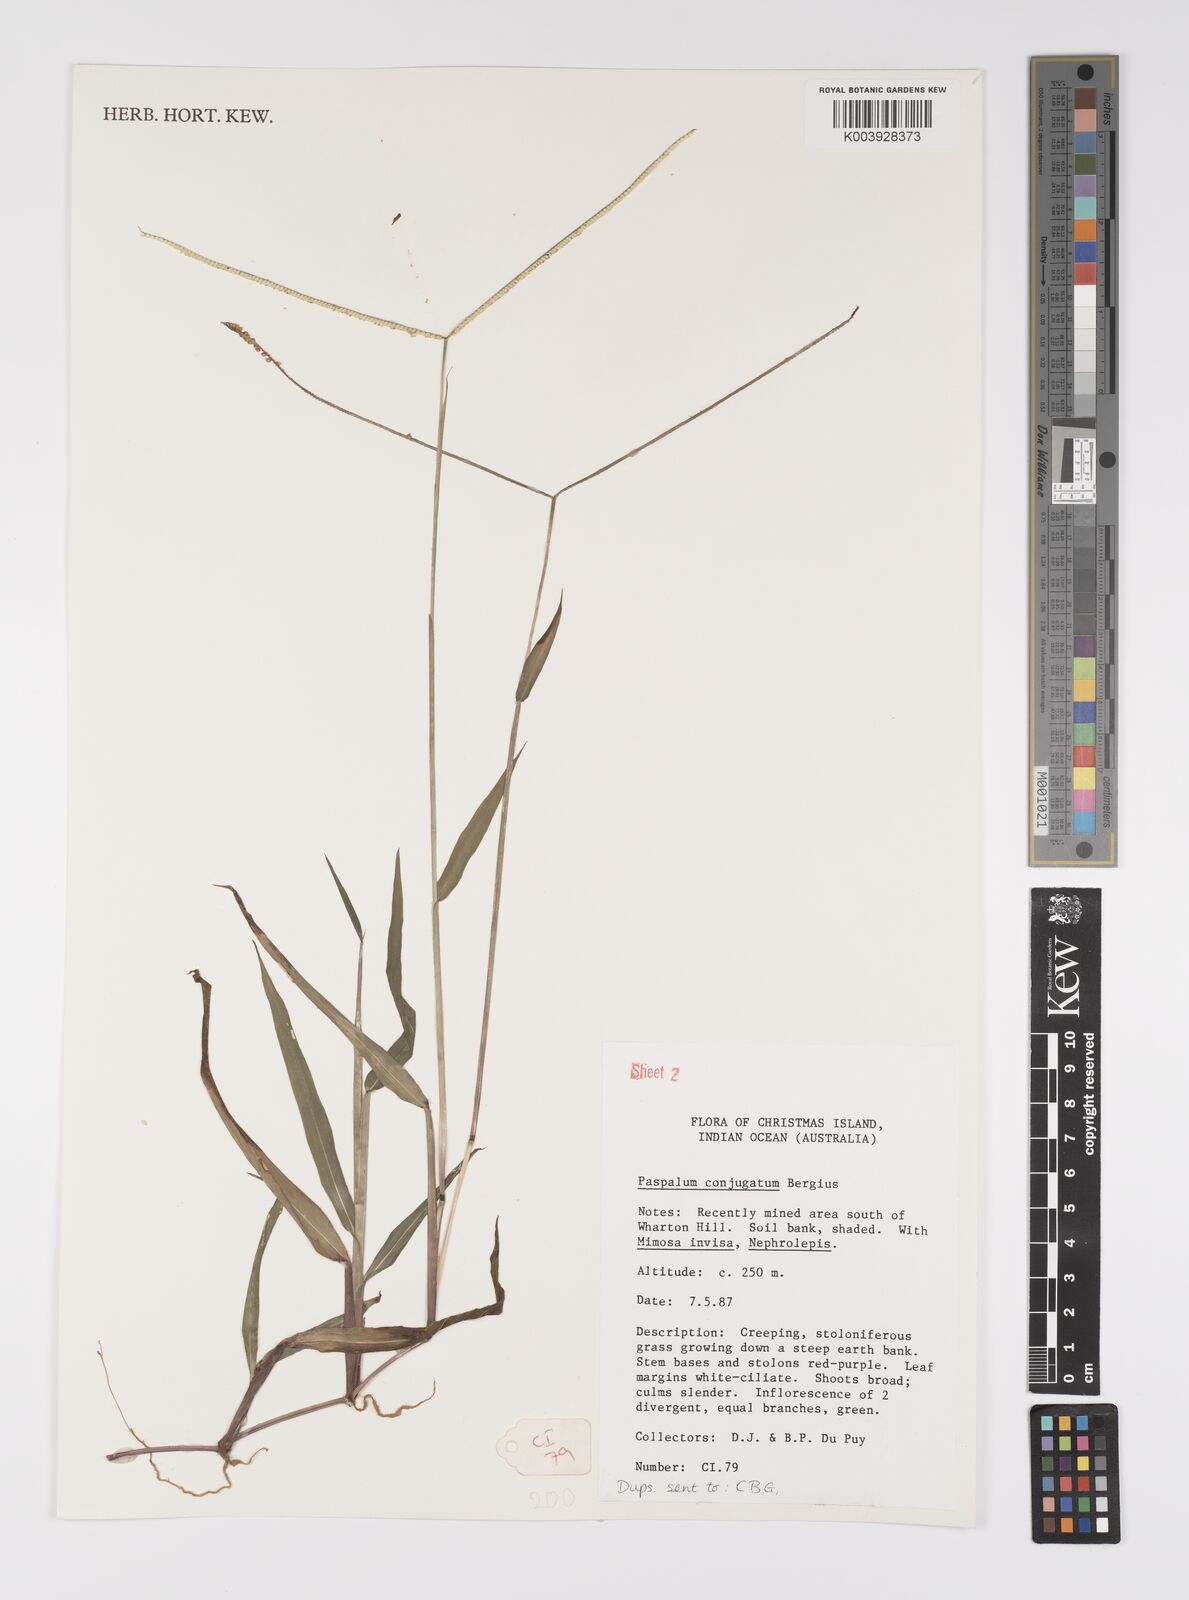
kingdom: Plantae
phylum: Tracheophyta
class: Liliopsida
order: Poales
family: Poaceae
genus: Paspalum
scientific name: Paspalum conjugatum
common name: Hilograss
